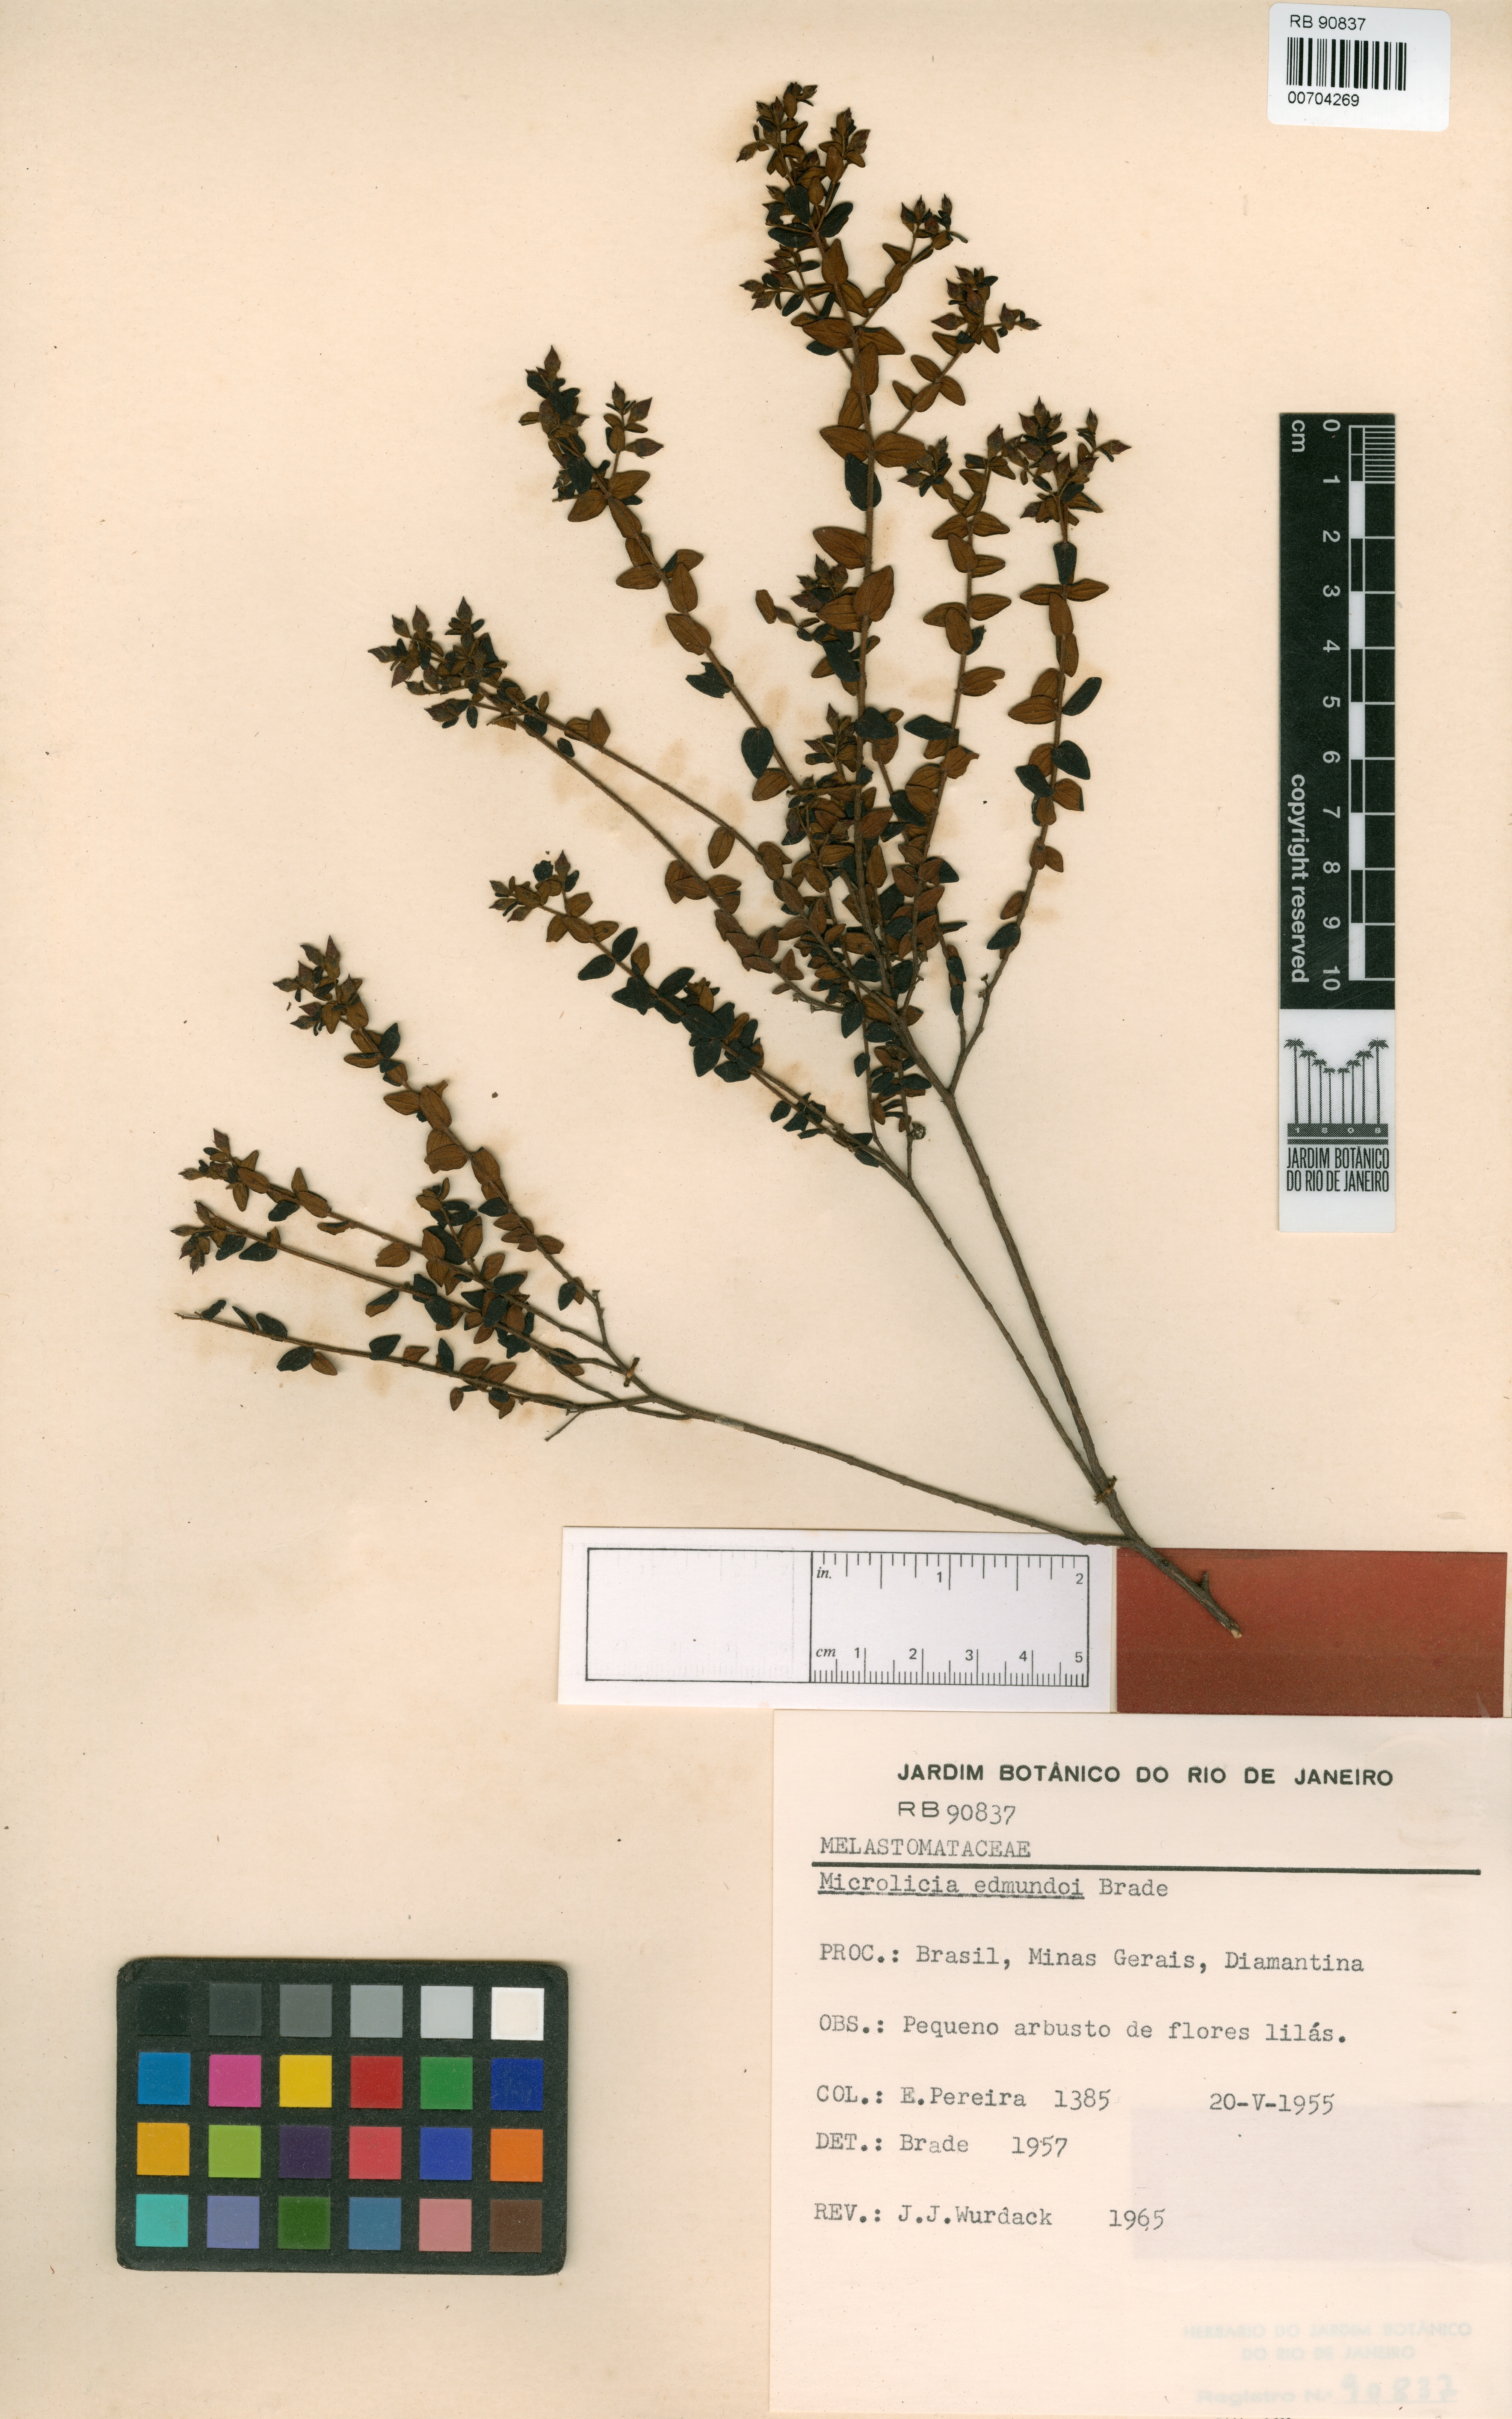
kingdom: Plantae
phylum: Tracheophyta
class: Magnoliopsida
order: Myrtales
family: Melastomataceae
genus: Microlicia
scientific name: Microlicia edmundoi
